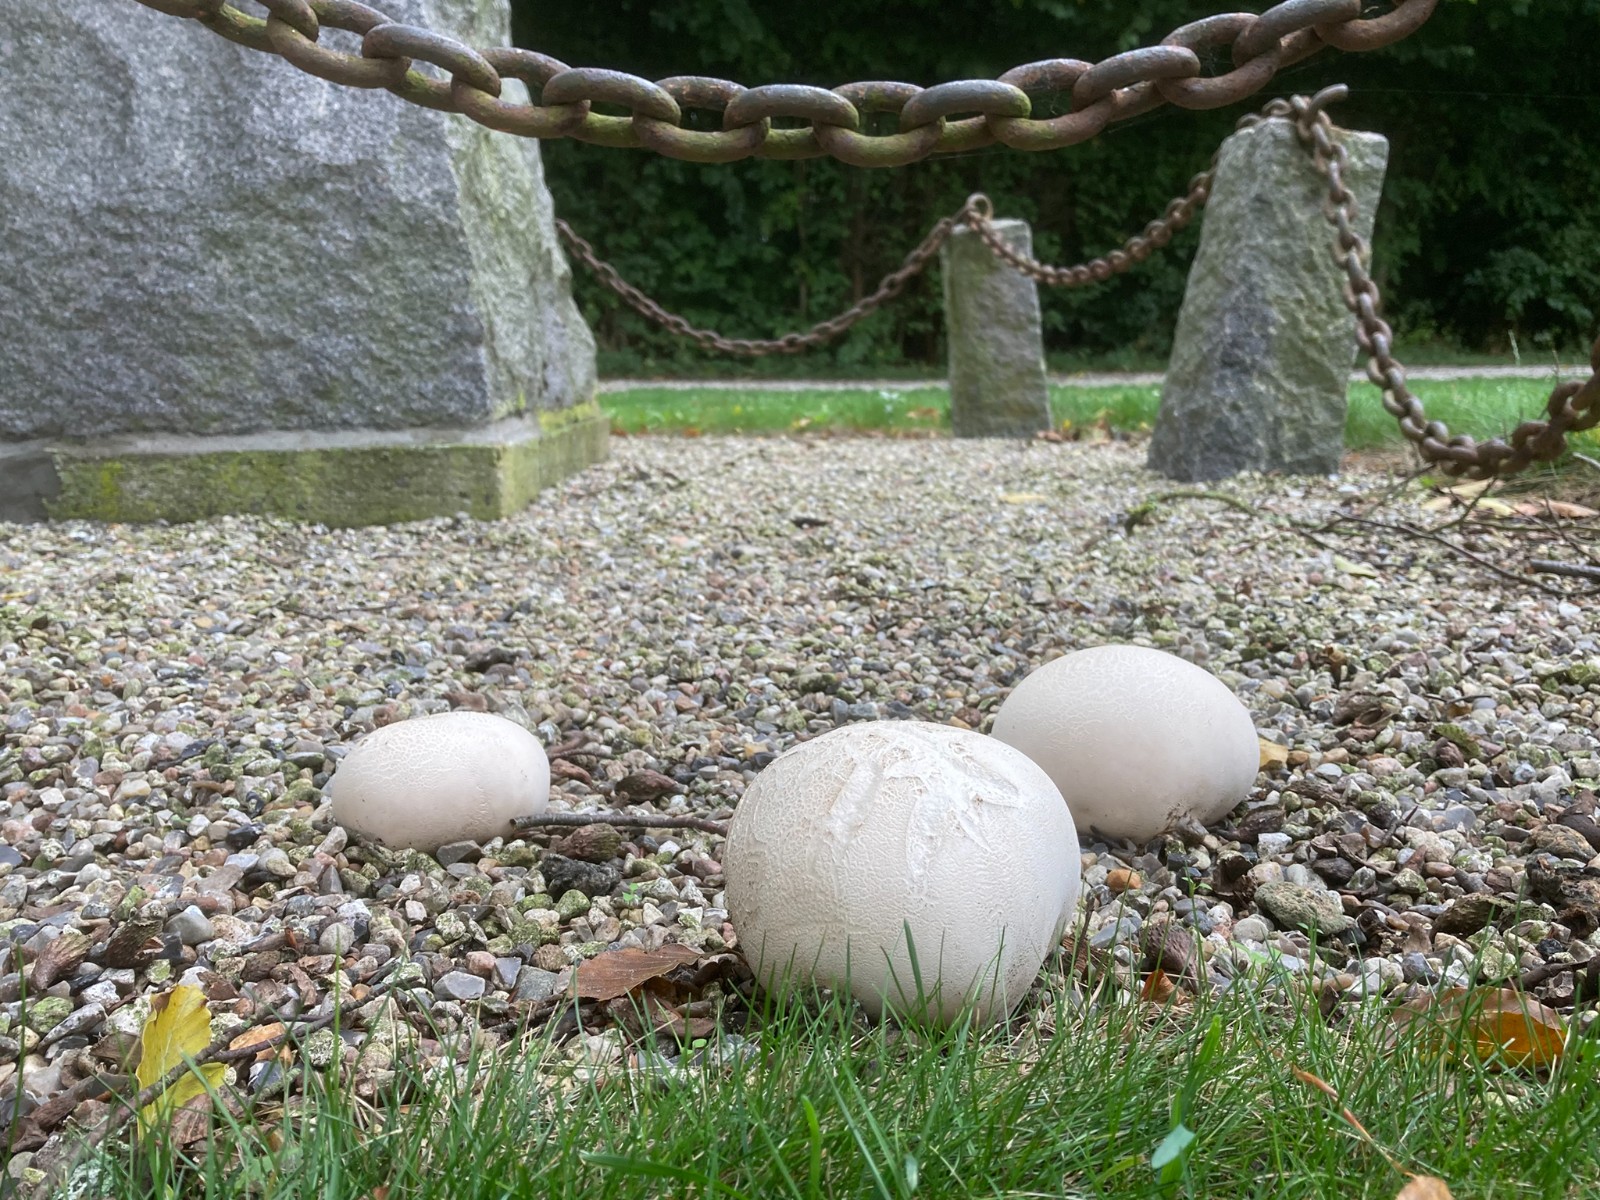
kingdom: Fungi
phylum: Basidiomycota
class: Agaricomycetes
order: Agaricales
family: Lycoperdaceae
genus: Calvatia
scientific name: Calvatia gigantea
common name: kæmpestøvbold
